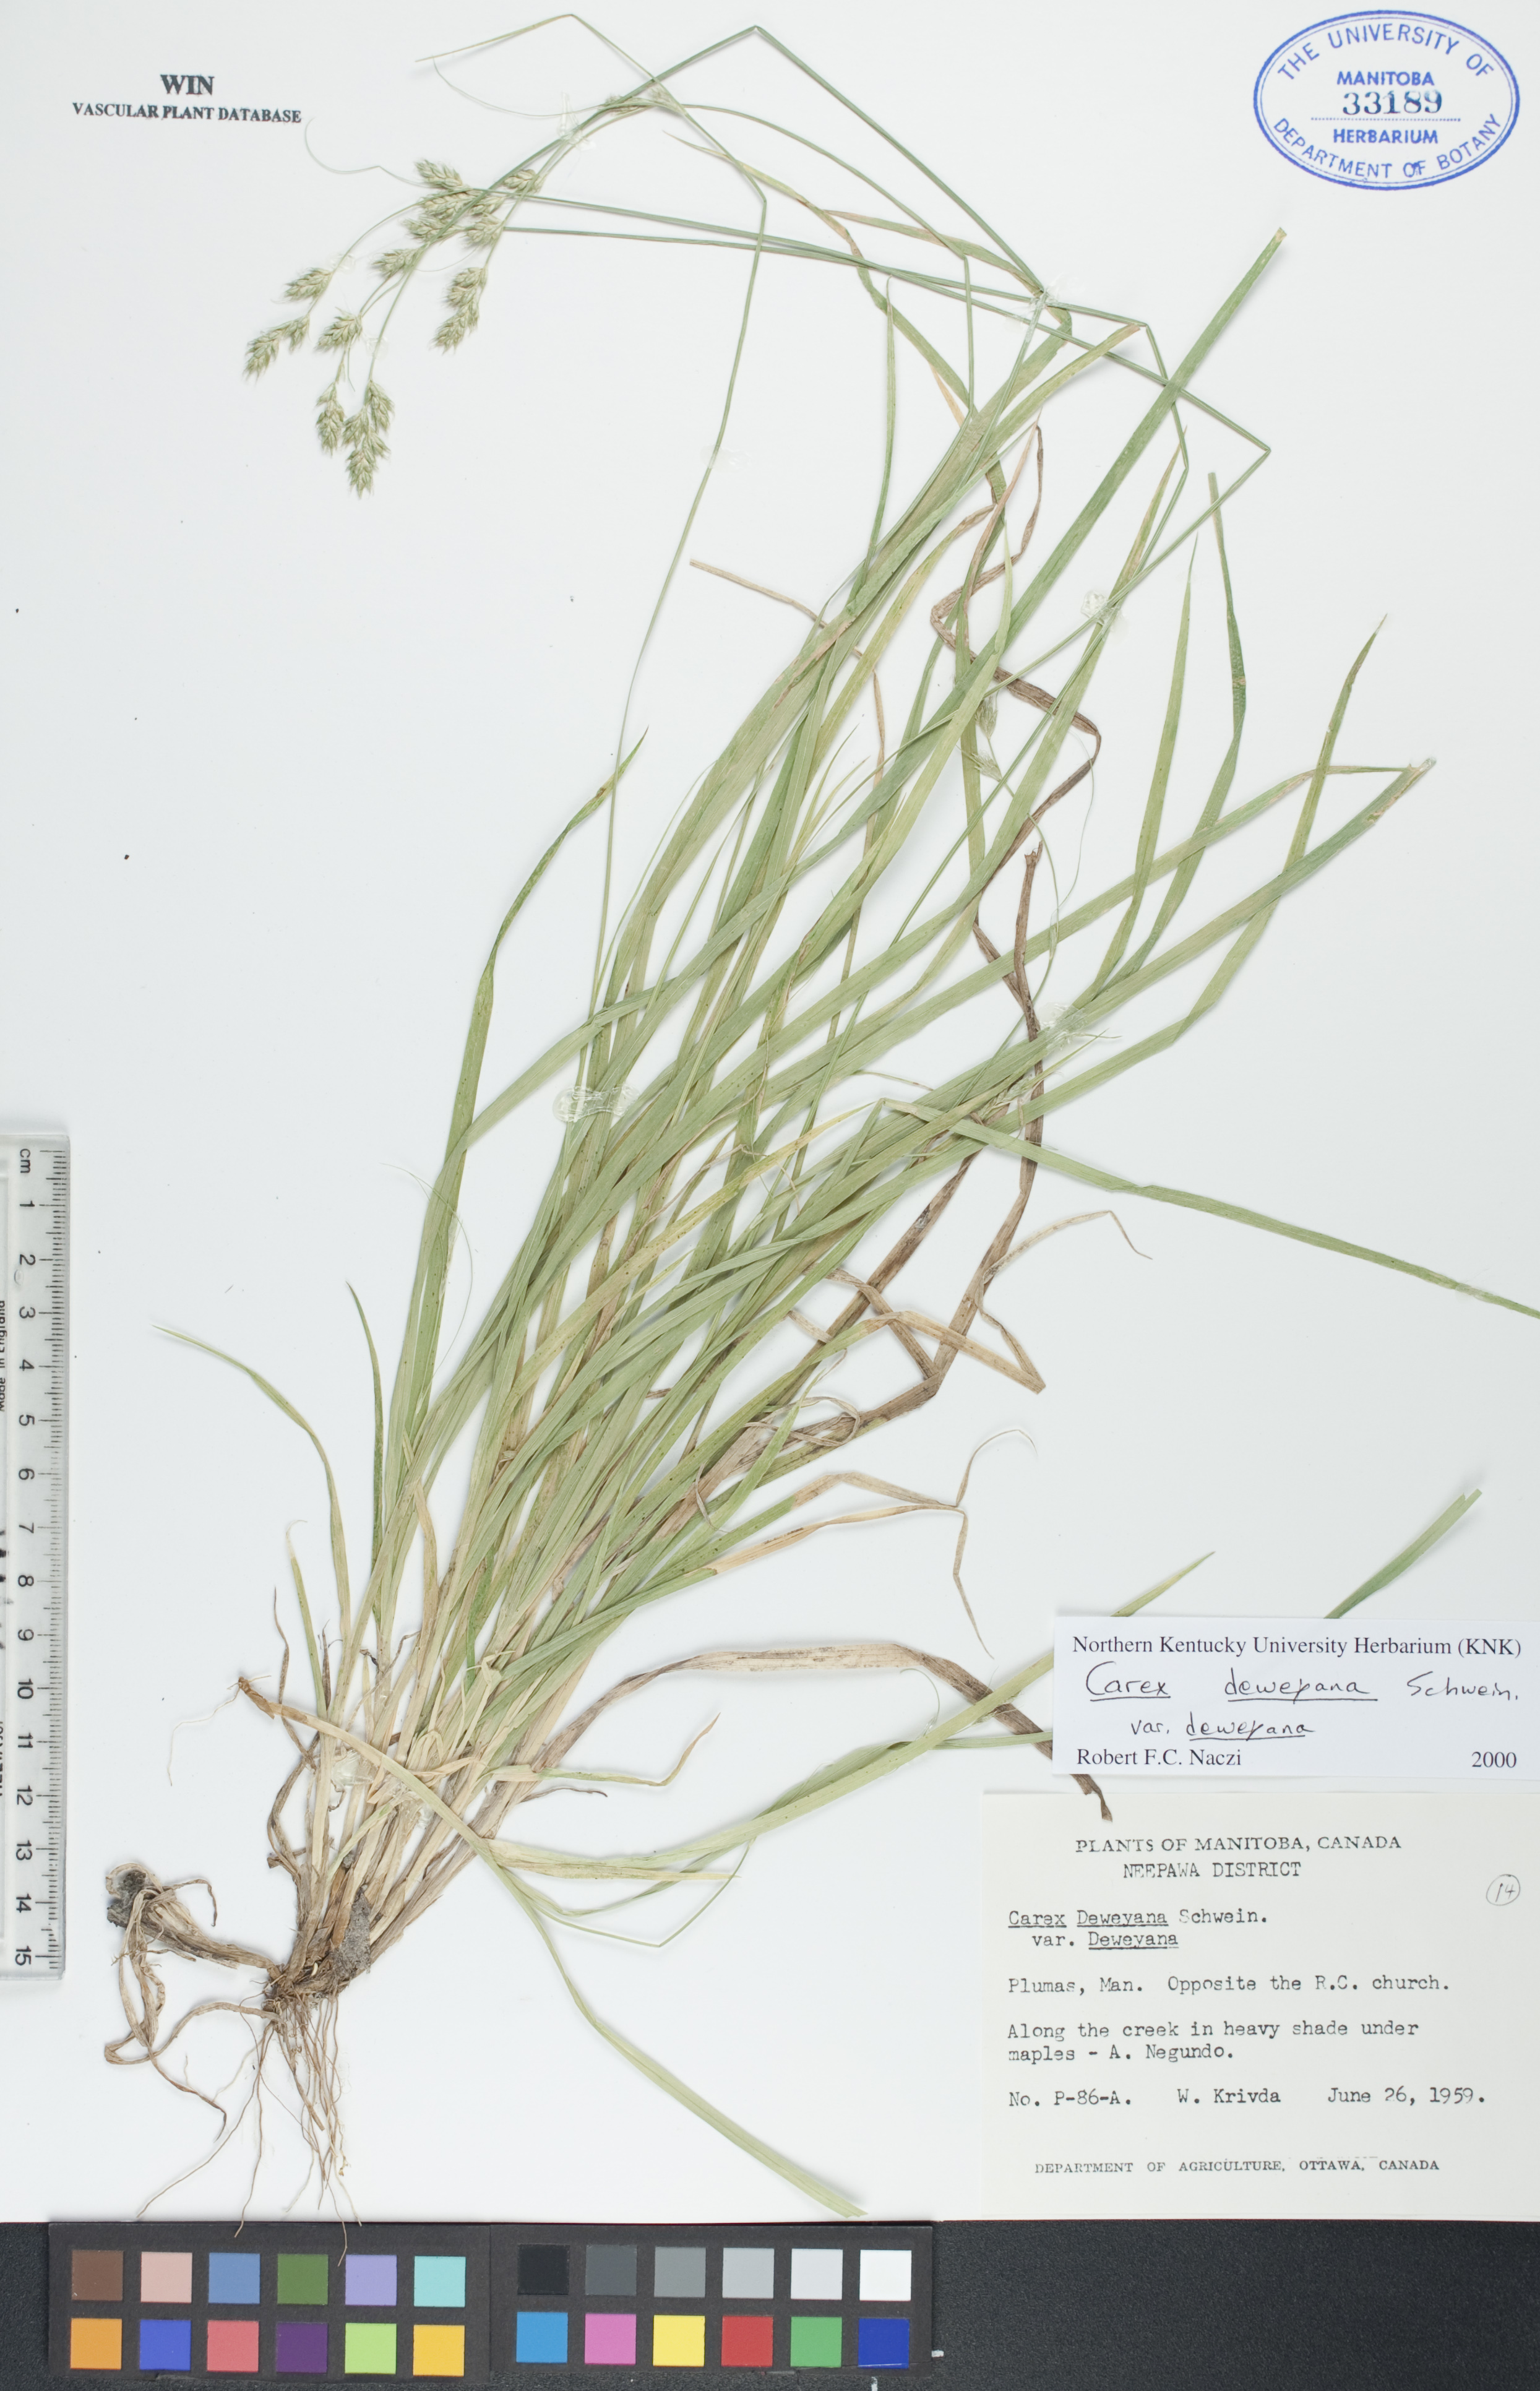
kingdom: Plantae
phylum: Tracheophyta
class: Liliopsida
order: Poales
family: Cyperaceae
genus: Carex
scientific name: Carex deweyana
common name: Dewey's sedge
